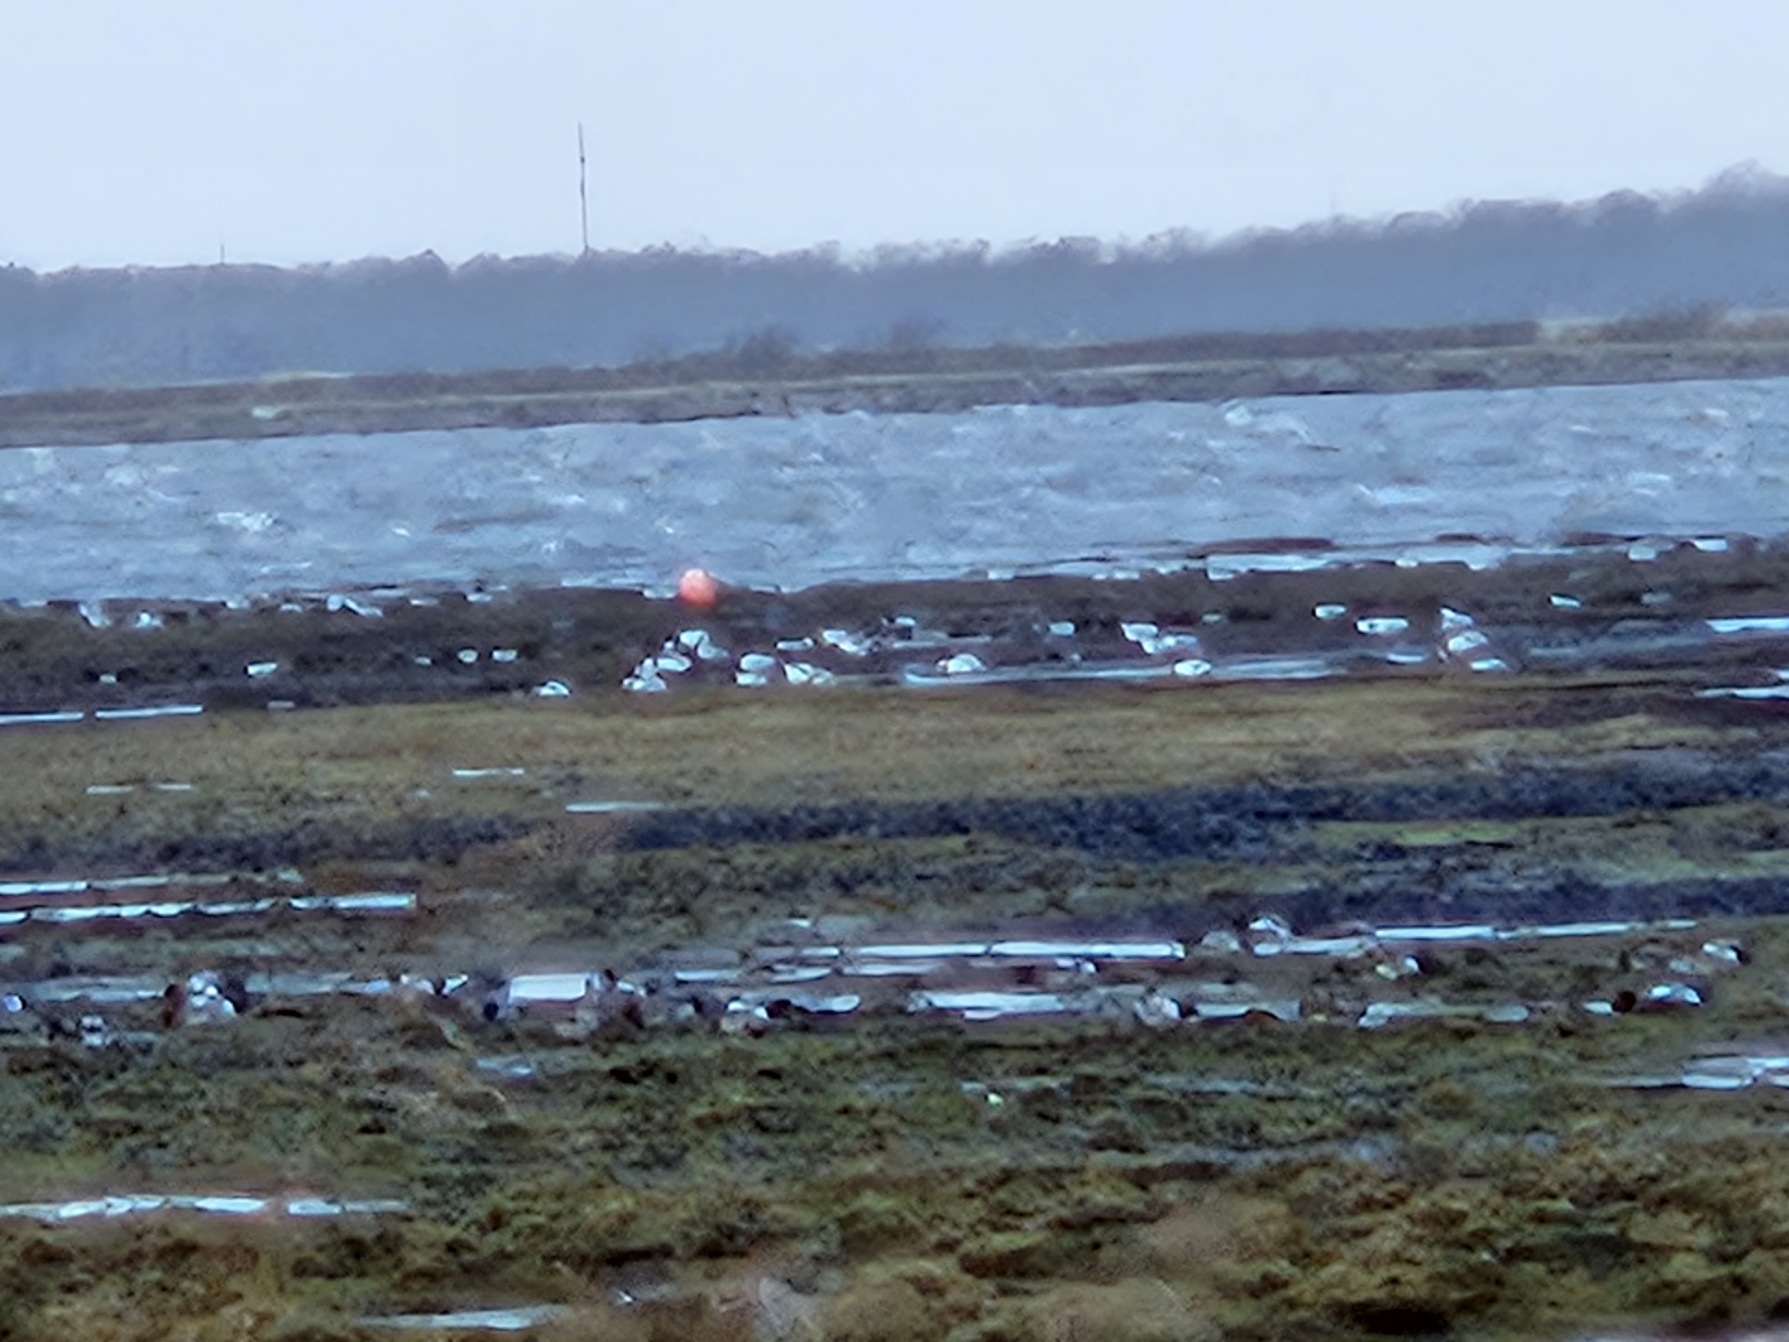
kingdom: Animalia
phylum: Chordata
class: Aves
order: Anseriformes
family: Anatidae
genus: Tadorna
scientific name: Tadorna tadorna
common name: Gravand
